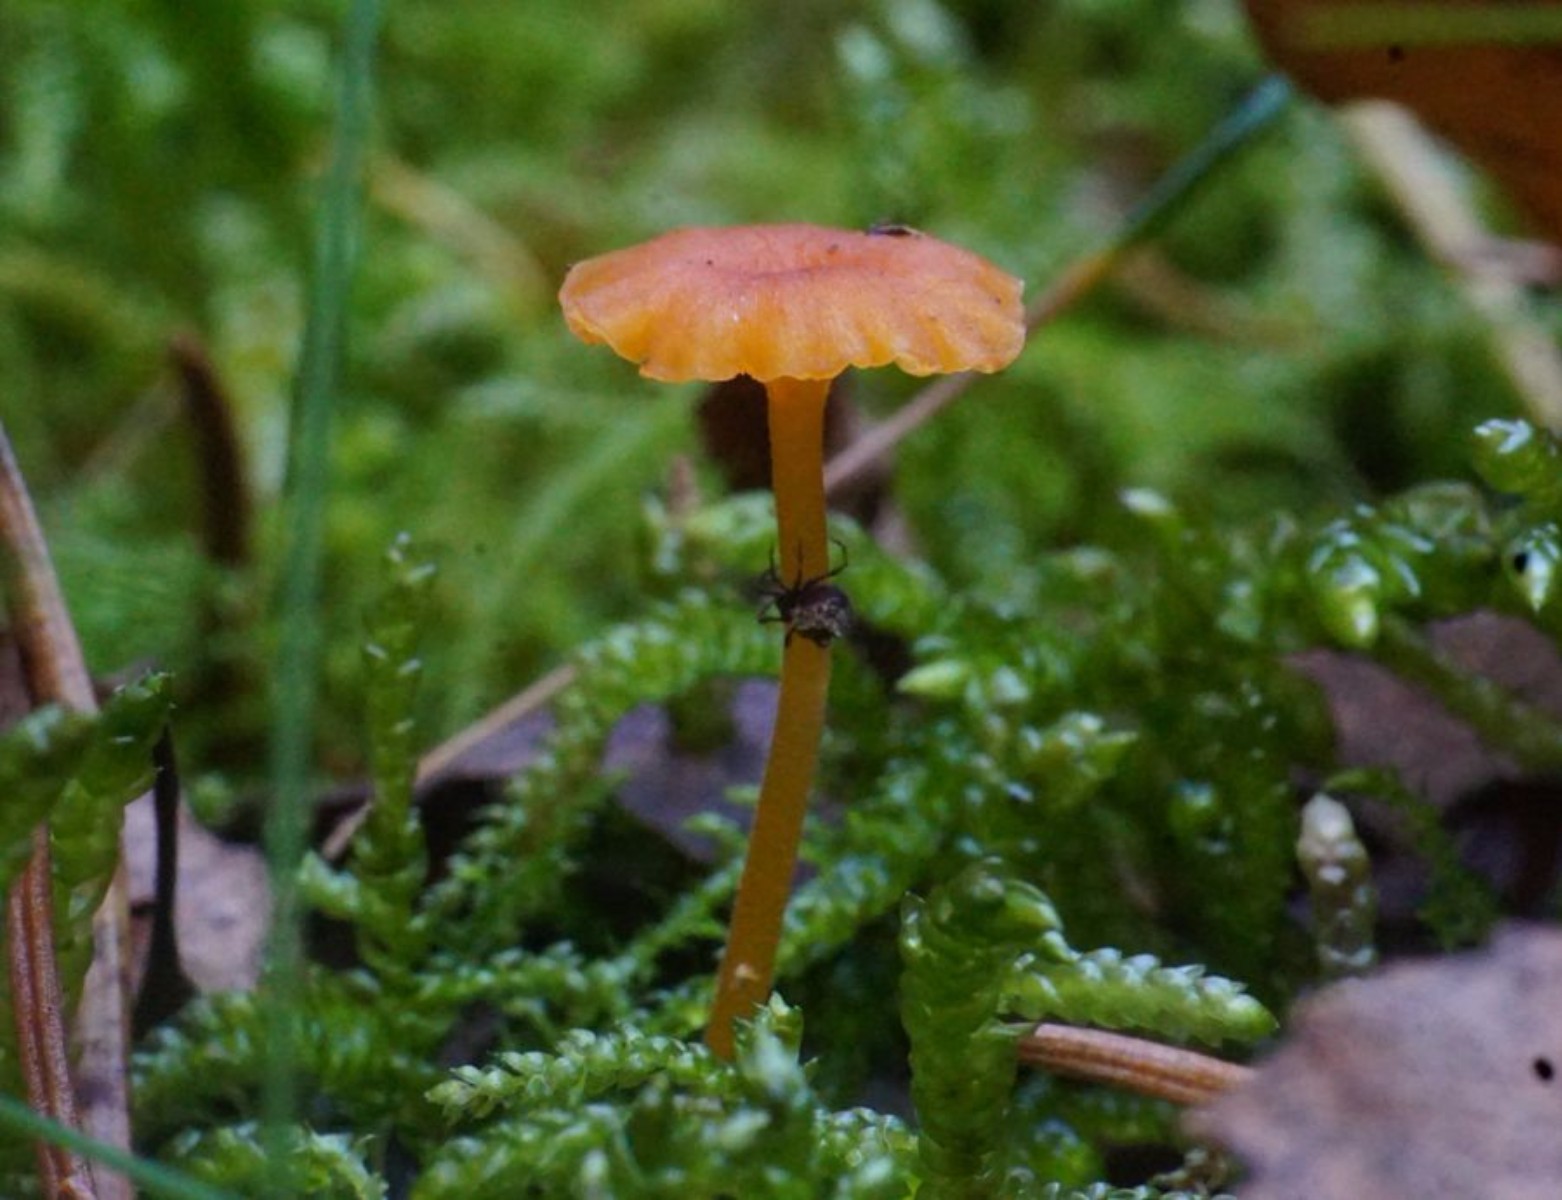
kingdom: Fungi
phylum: Basidiomycota
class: Agaricomycetes
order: Hymenochaetales
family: Rickenellaceae
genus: Rickenella
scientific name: Rickenella fibula
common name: orange mosnavlehat
